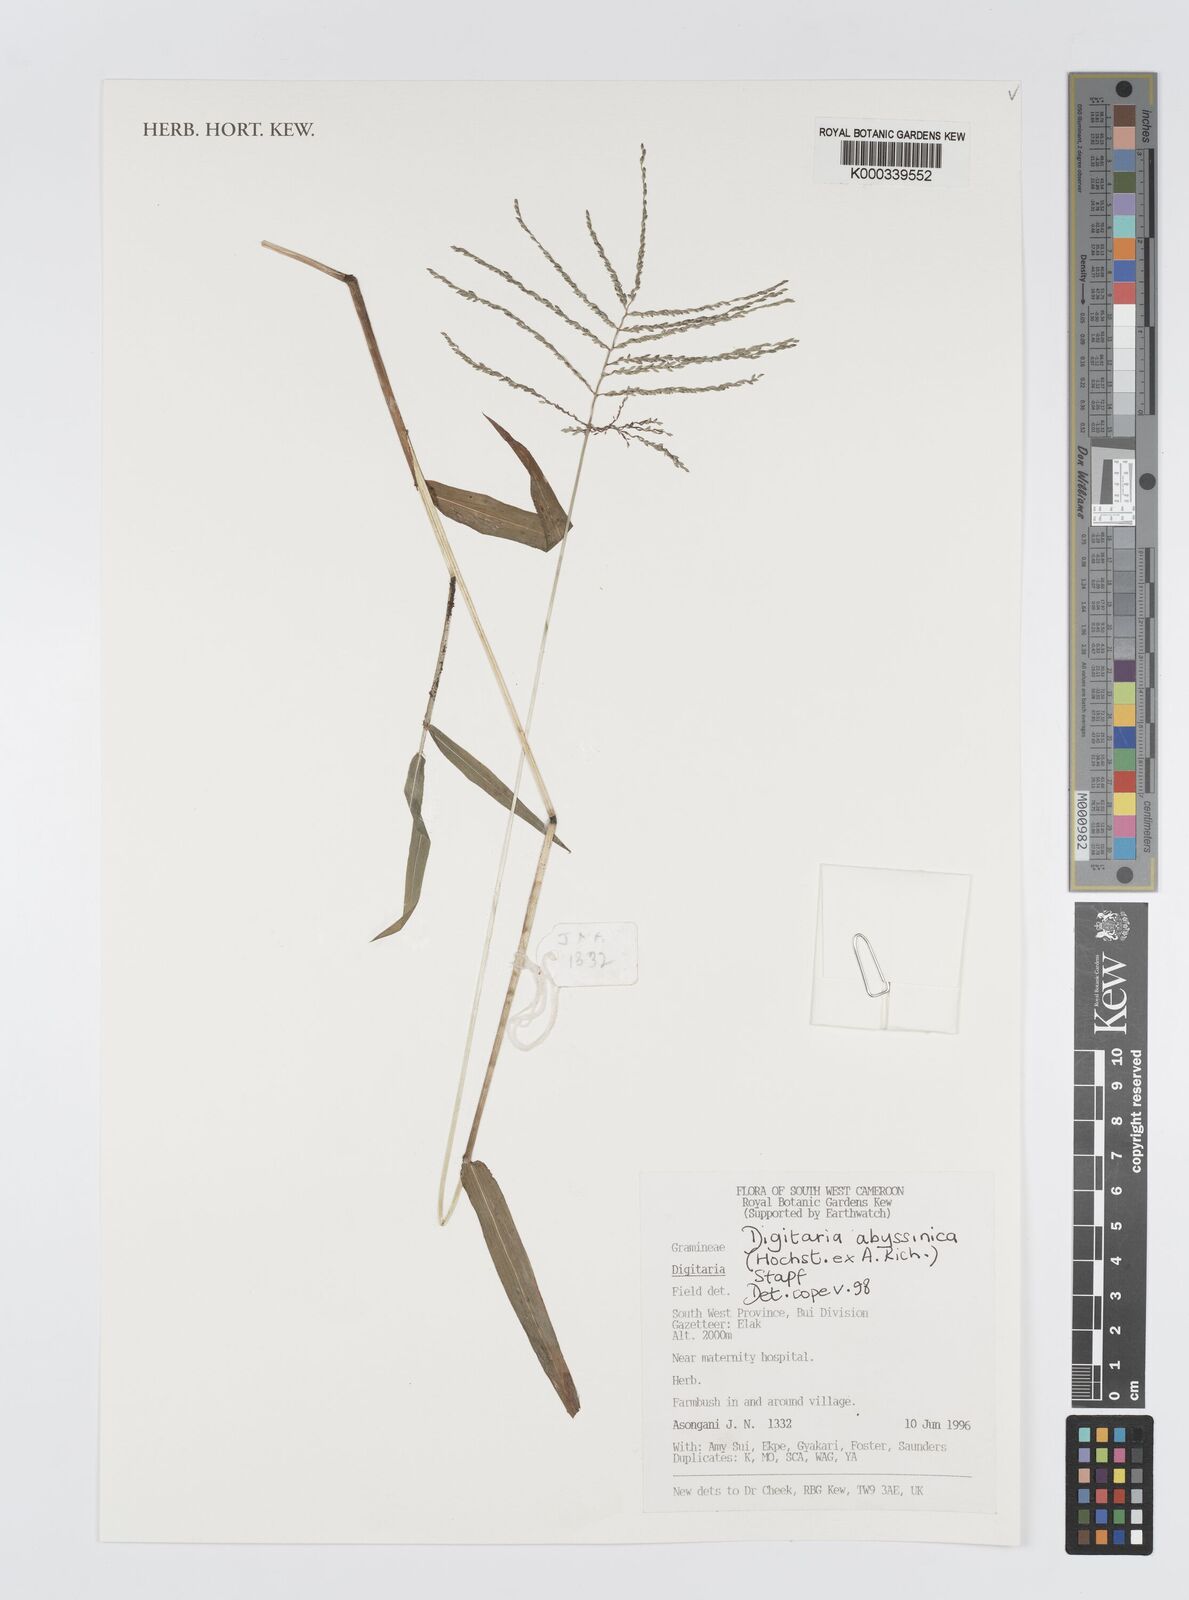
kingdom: Plantae
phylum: Tracheophyta
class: Liliopsida
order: Poales
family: Poaceae
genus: Digitaria
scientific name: Digitaria abyssinica
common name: African couchgrass
